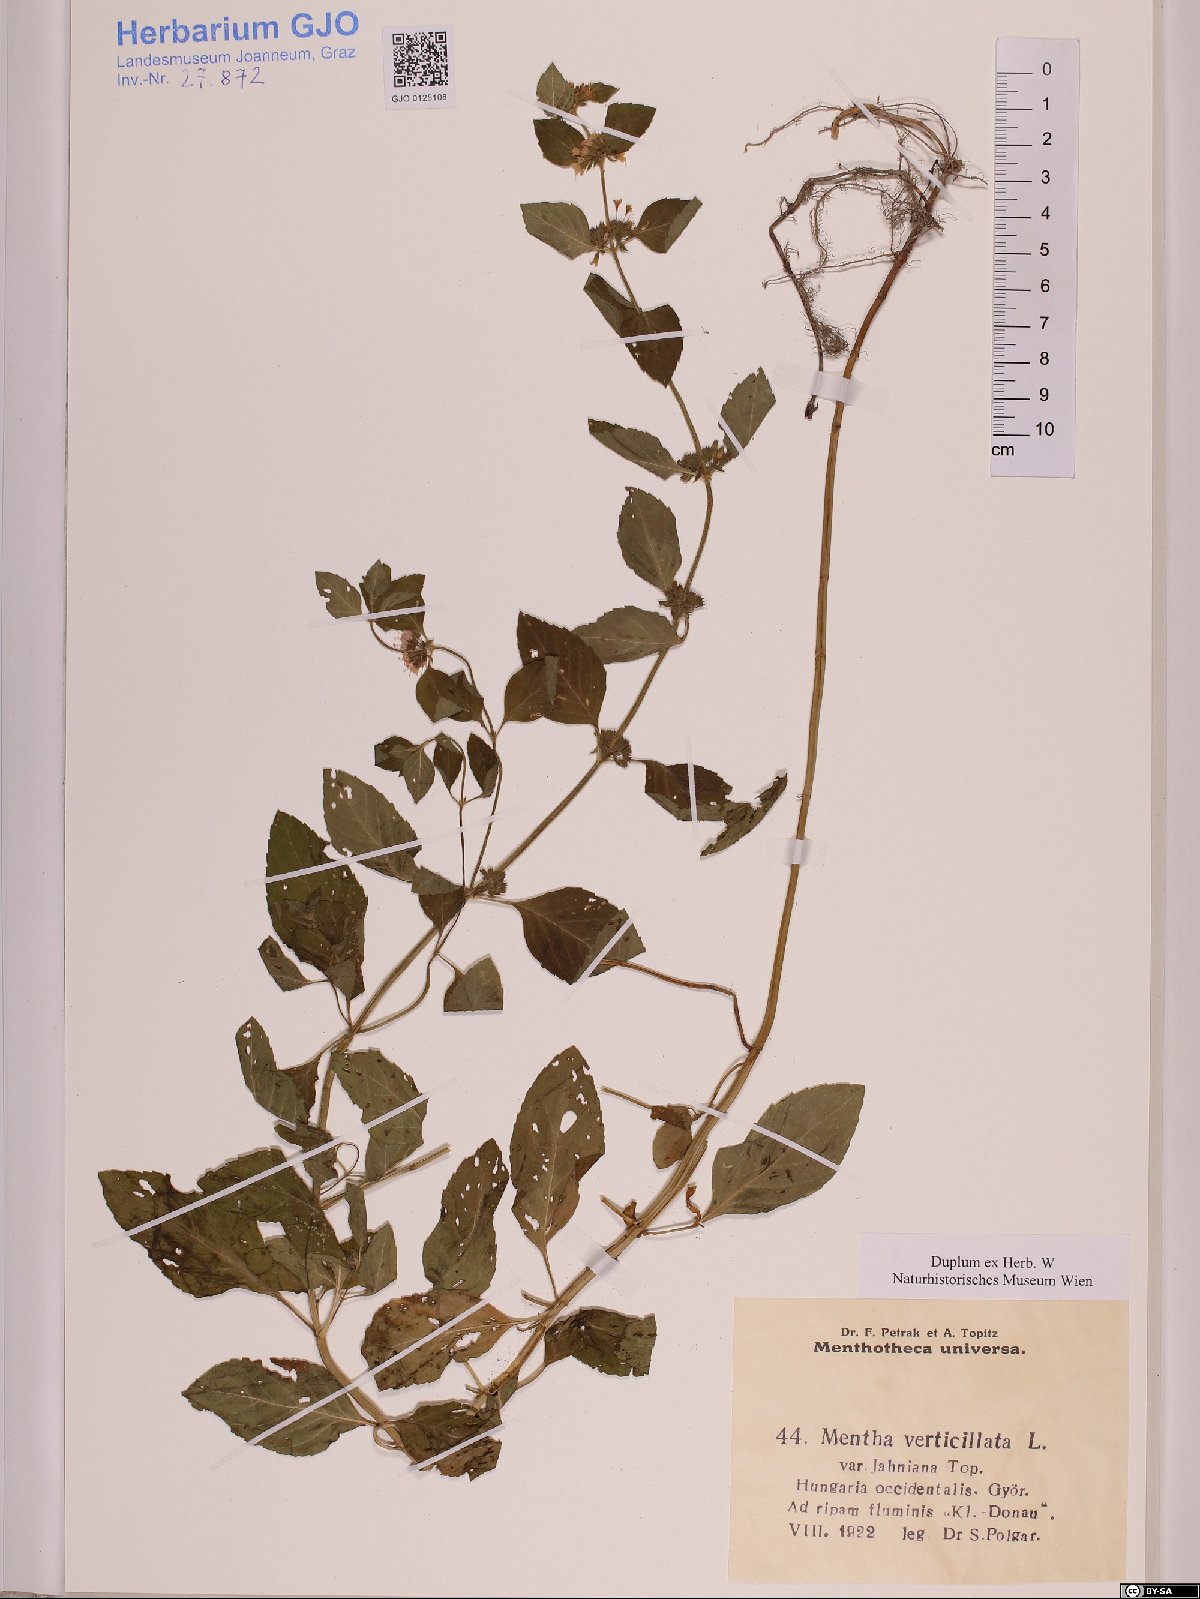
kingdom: Plantae
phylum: Tracheophyta
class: Magnoliopsida
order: Lamiales
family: Lamiaceae
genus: Mentha
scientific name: Mentha verticillata
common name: Mint
